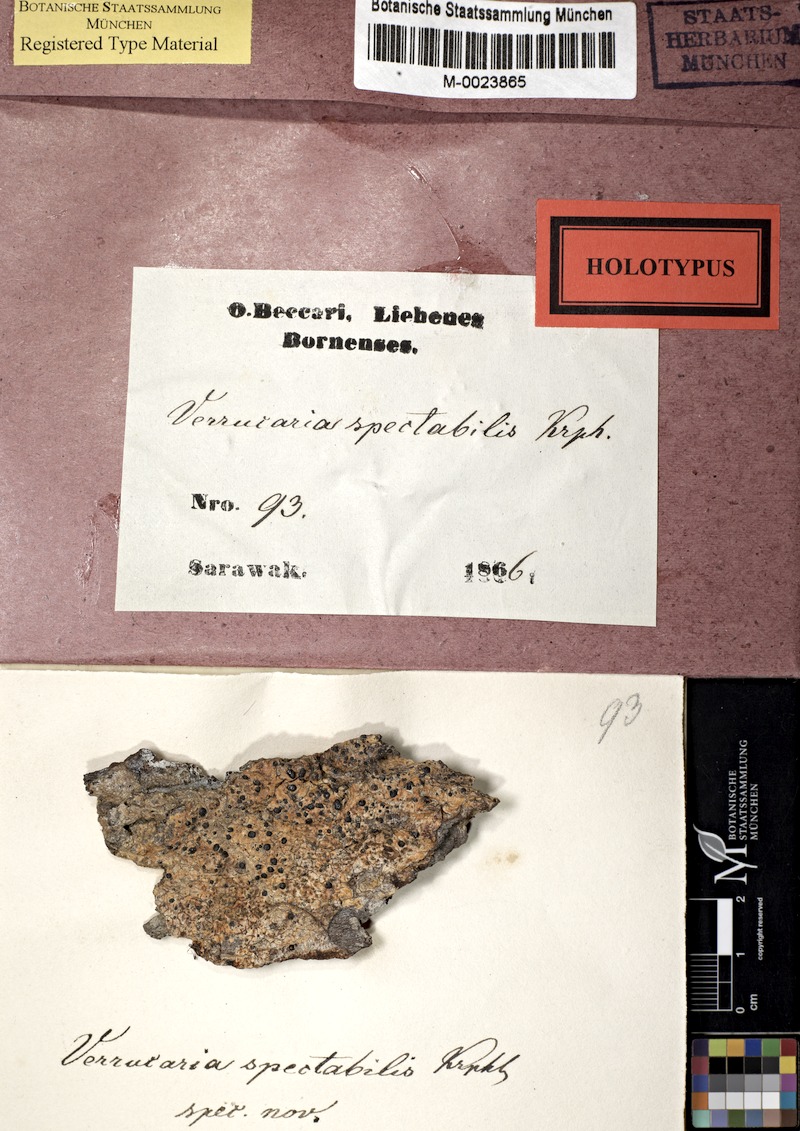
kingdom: Fungi
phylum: Ascomycota
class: Lecanoromycetes
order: Pertusariales
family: Pertusariaceae
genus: Porina
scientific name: Porina
